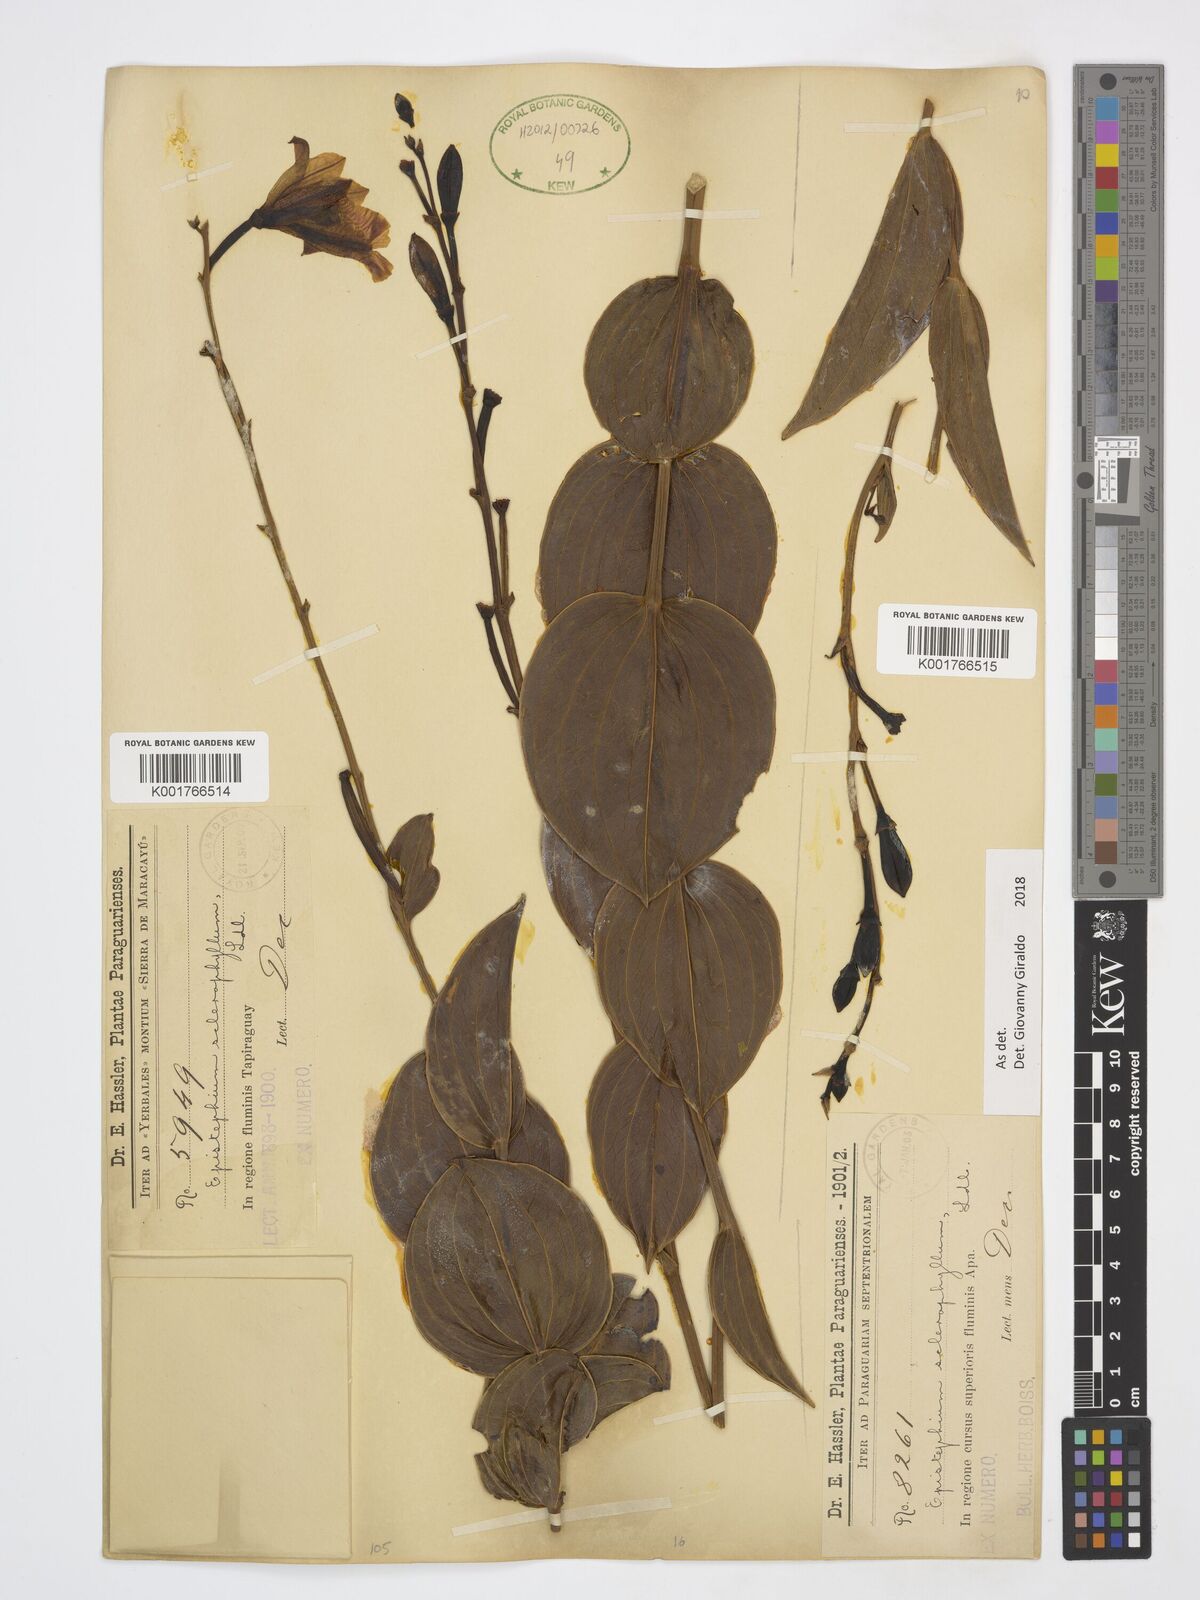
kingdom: Plantae
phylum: Tracheophyta
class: Liliopsida
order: Asparagales
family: Orchidaceae
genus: Epistephium
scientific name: Epistephium sclerophyllum
